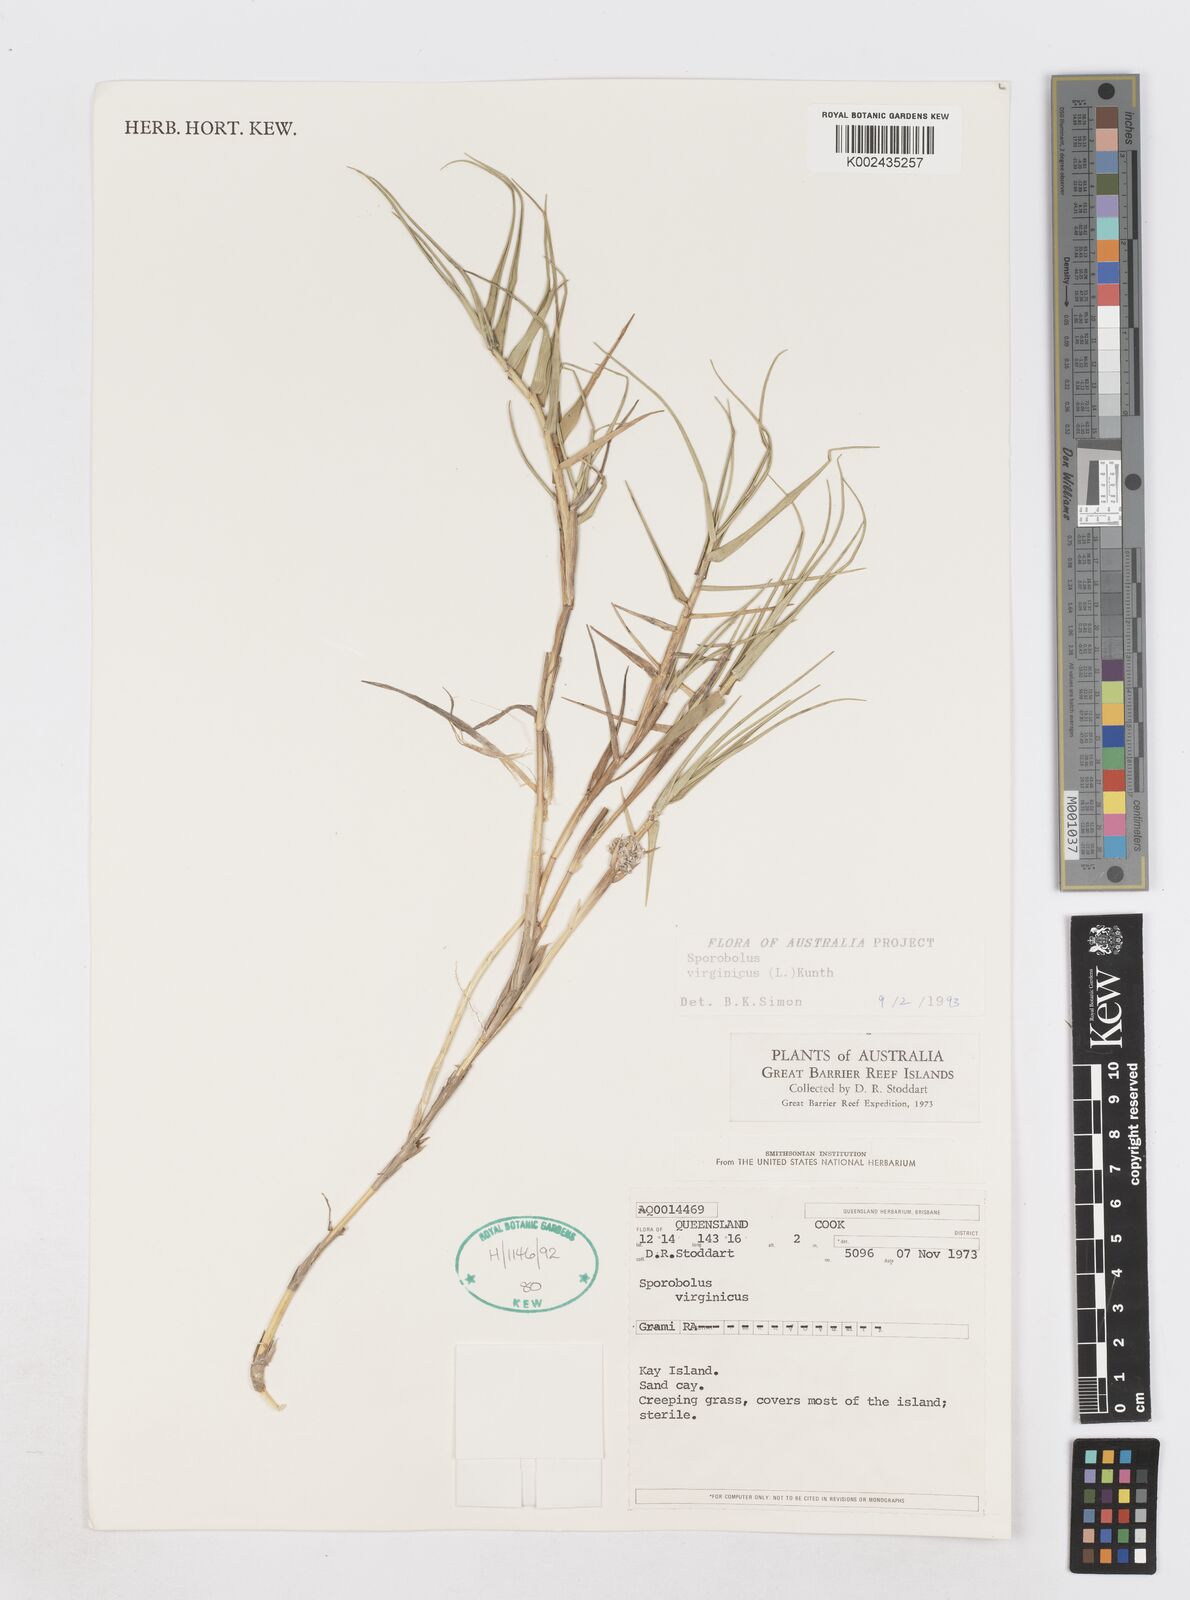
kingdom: Plantae
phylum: Tracheophyta
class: Liliopsida
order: Poales
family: Poaceae
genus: Sporobolus
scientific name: Sporobolus virginicus
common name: Beach dropseed
